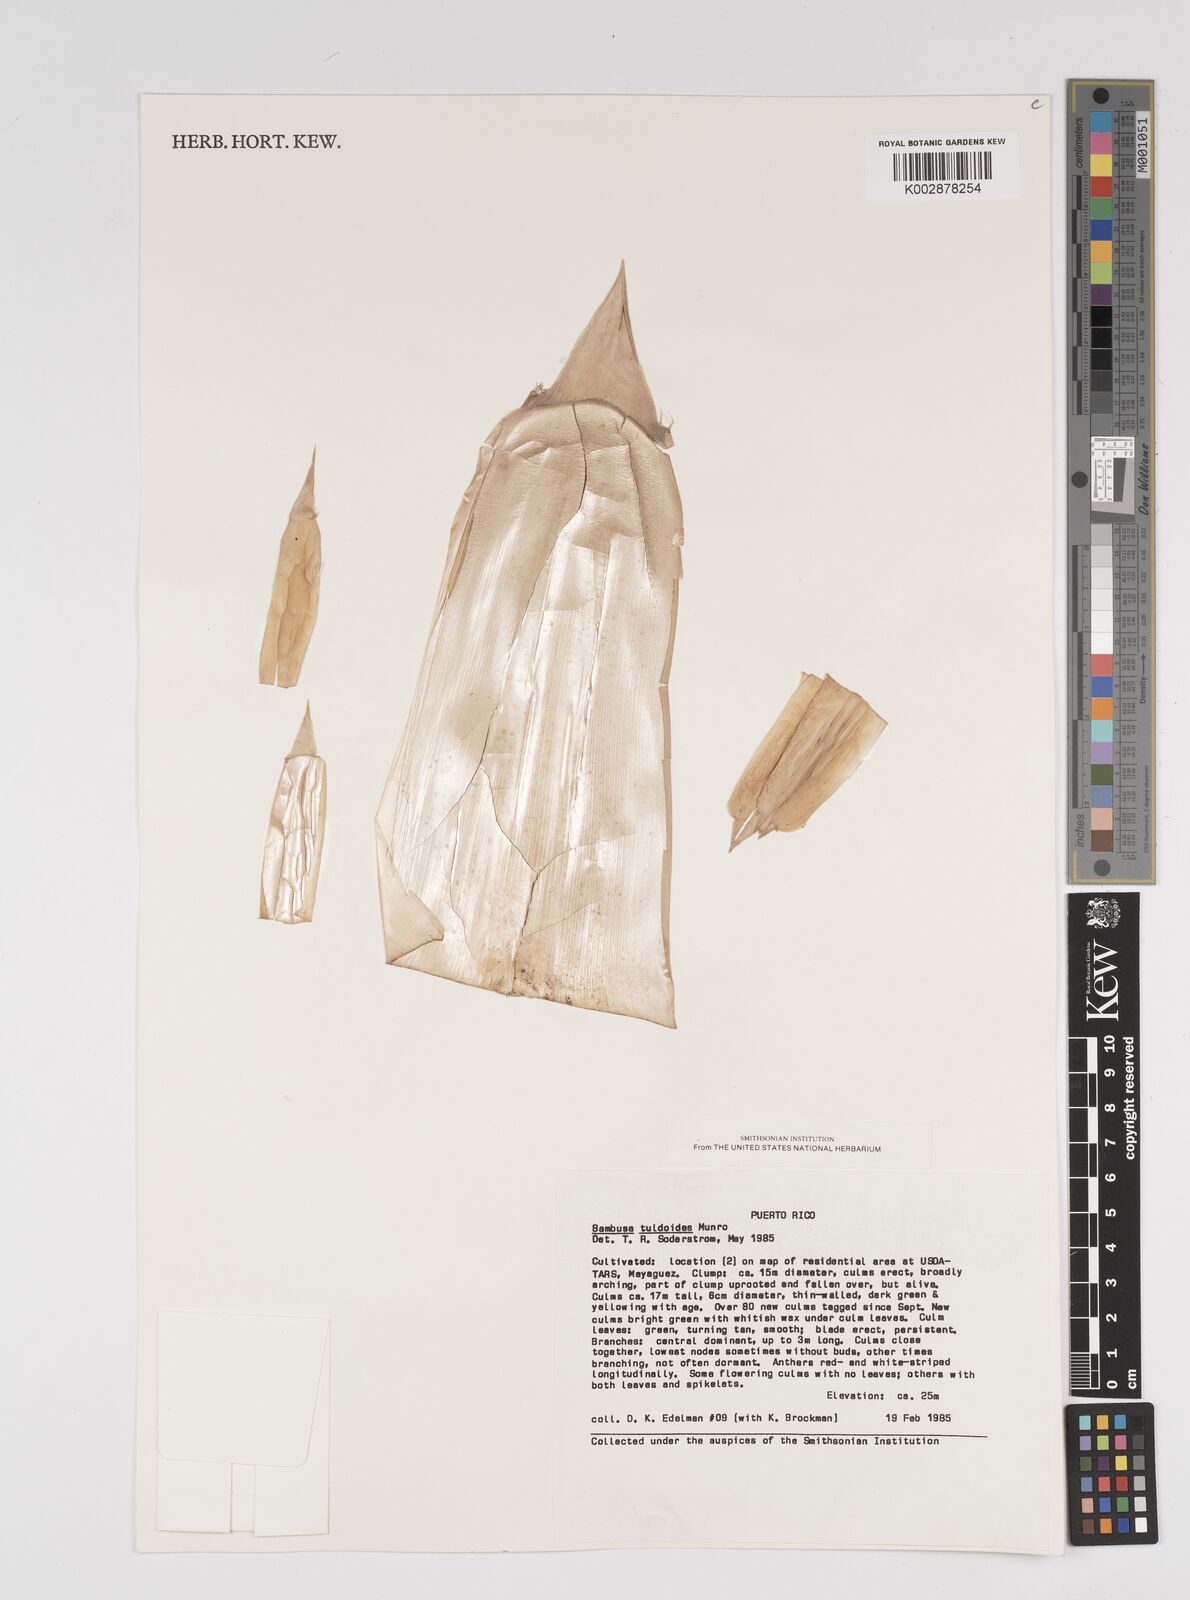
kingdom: Plantae
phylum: Tracheophyta
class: Liliopsida
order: Poales
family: Poaceae
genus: Bambusa
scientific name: Bambusa tuldoides
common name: Verdant bamboo
